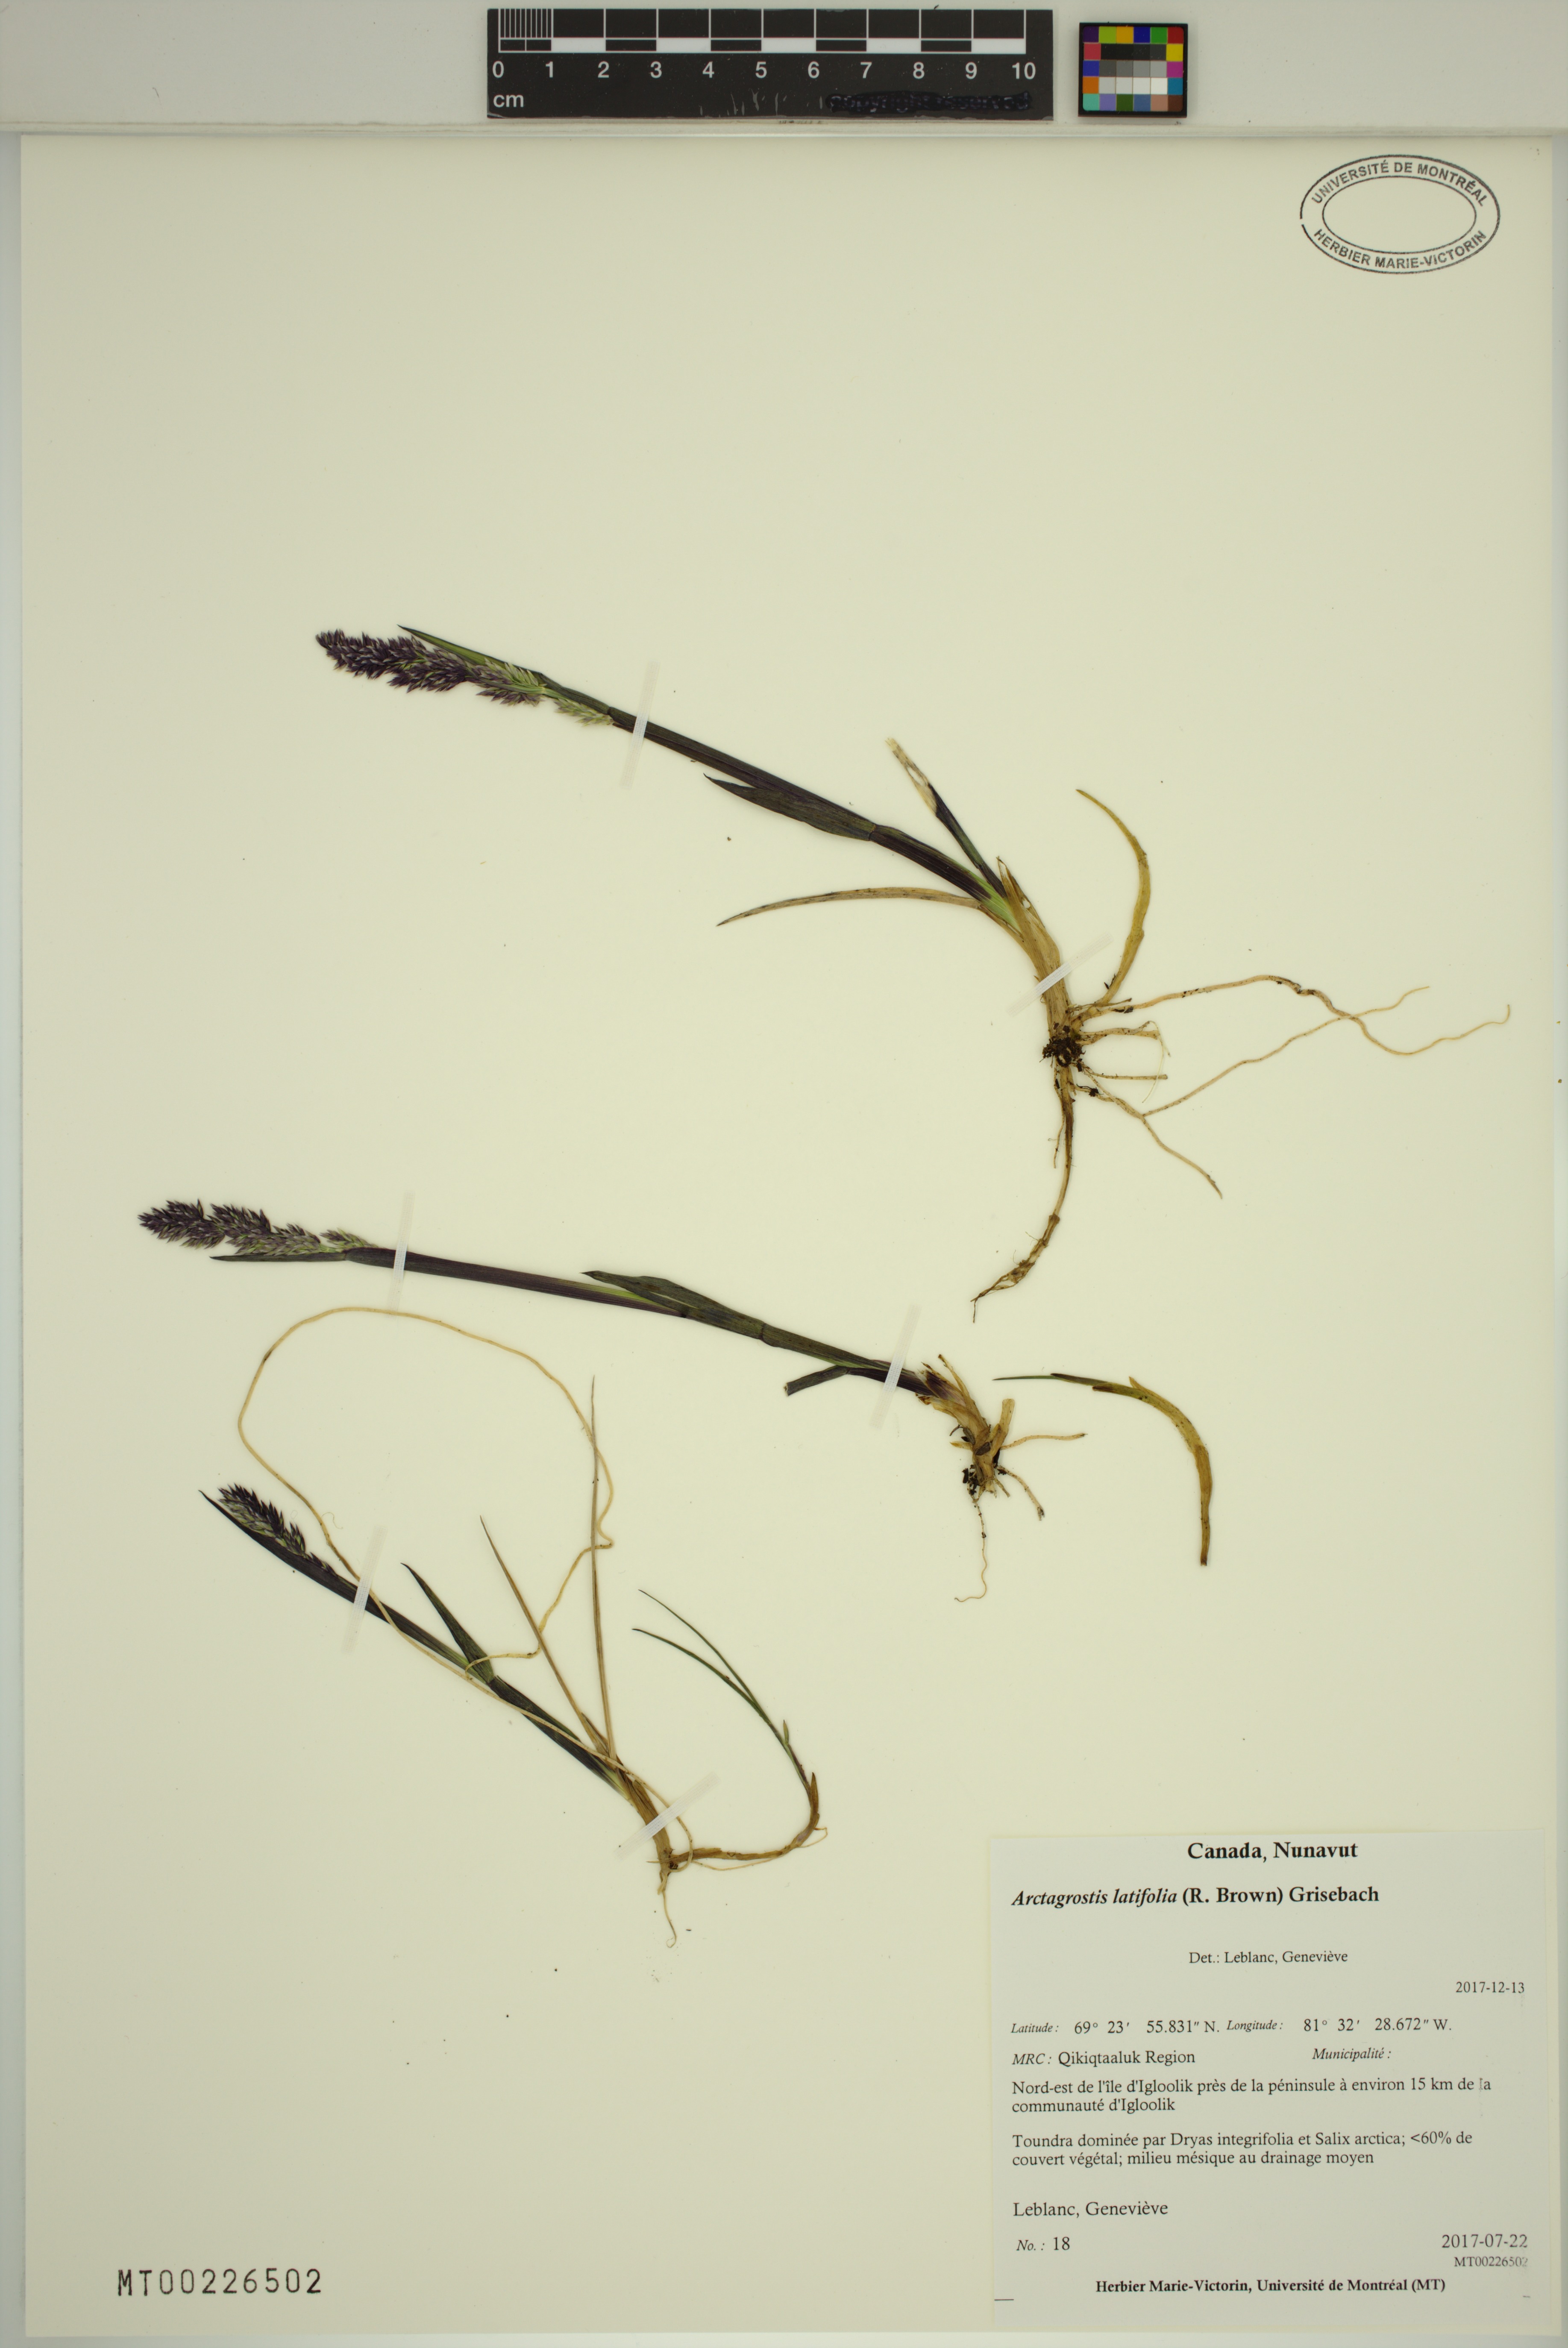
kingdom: Plantae
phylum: Tracheophyta
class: Liliopsida
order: Poales
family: Poaceae
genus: Arctagrostis
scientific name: Arctagrostis latifolia
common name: Arctic grass
